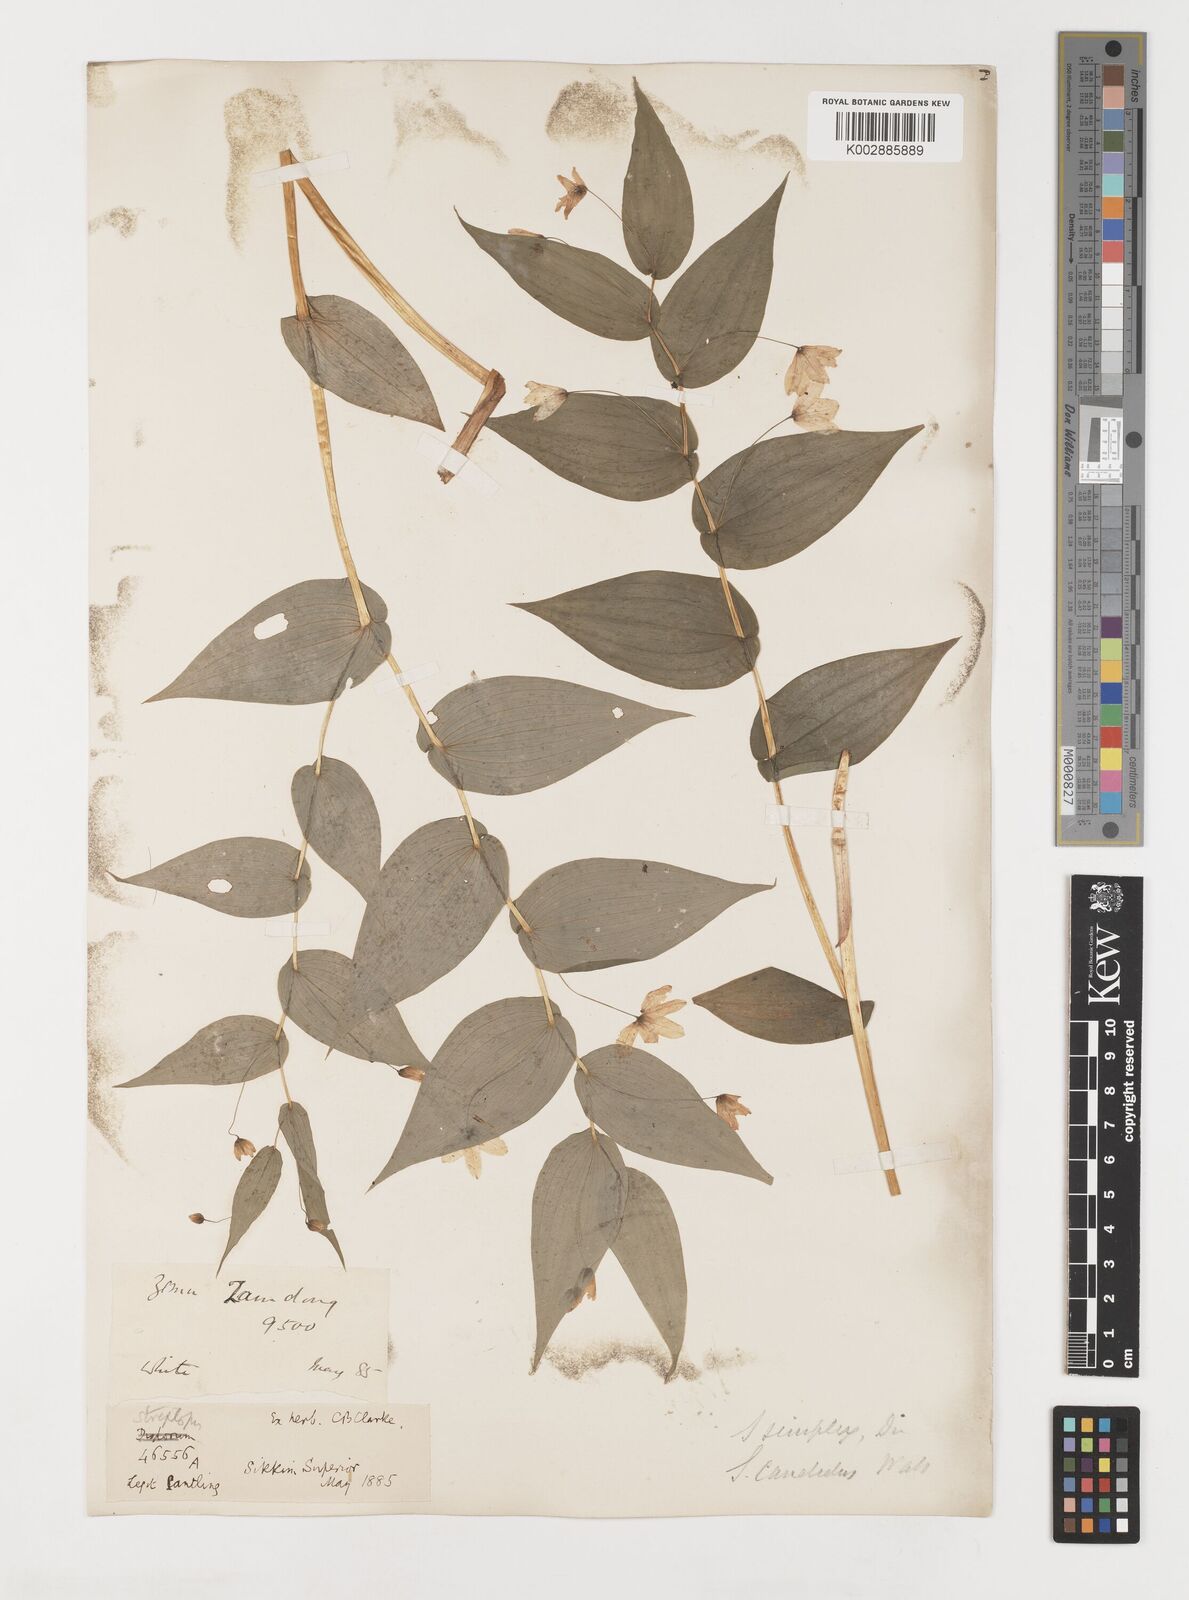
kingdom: Plantae
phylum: Tracheophyta
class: Liliopsida
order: Liliales
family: Liliaceae
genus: Streptopus
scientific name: Streptopus simplex
